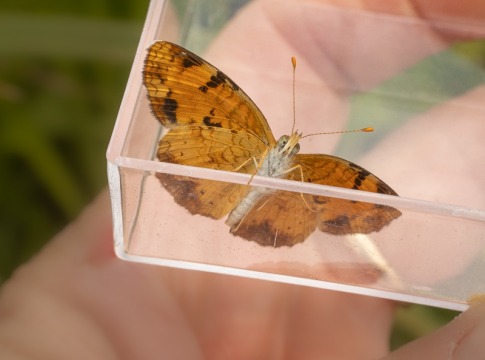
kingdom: Animalia
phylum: Arthropoda
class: Insecta
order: Lepidoptera
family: Nymphalidae
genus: Phyciodes
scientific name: Phyciodes tharos
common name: Northern Crescent
